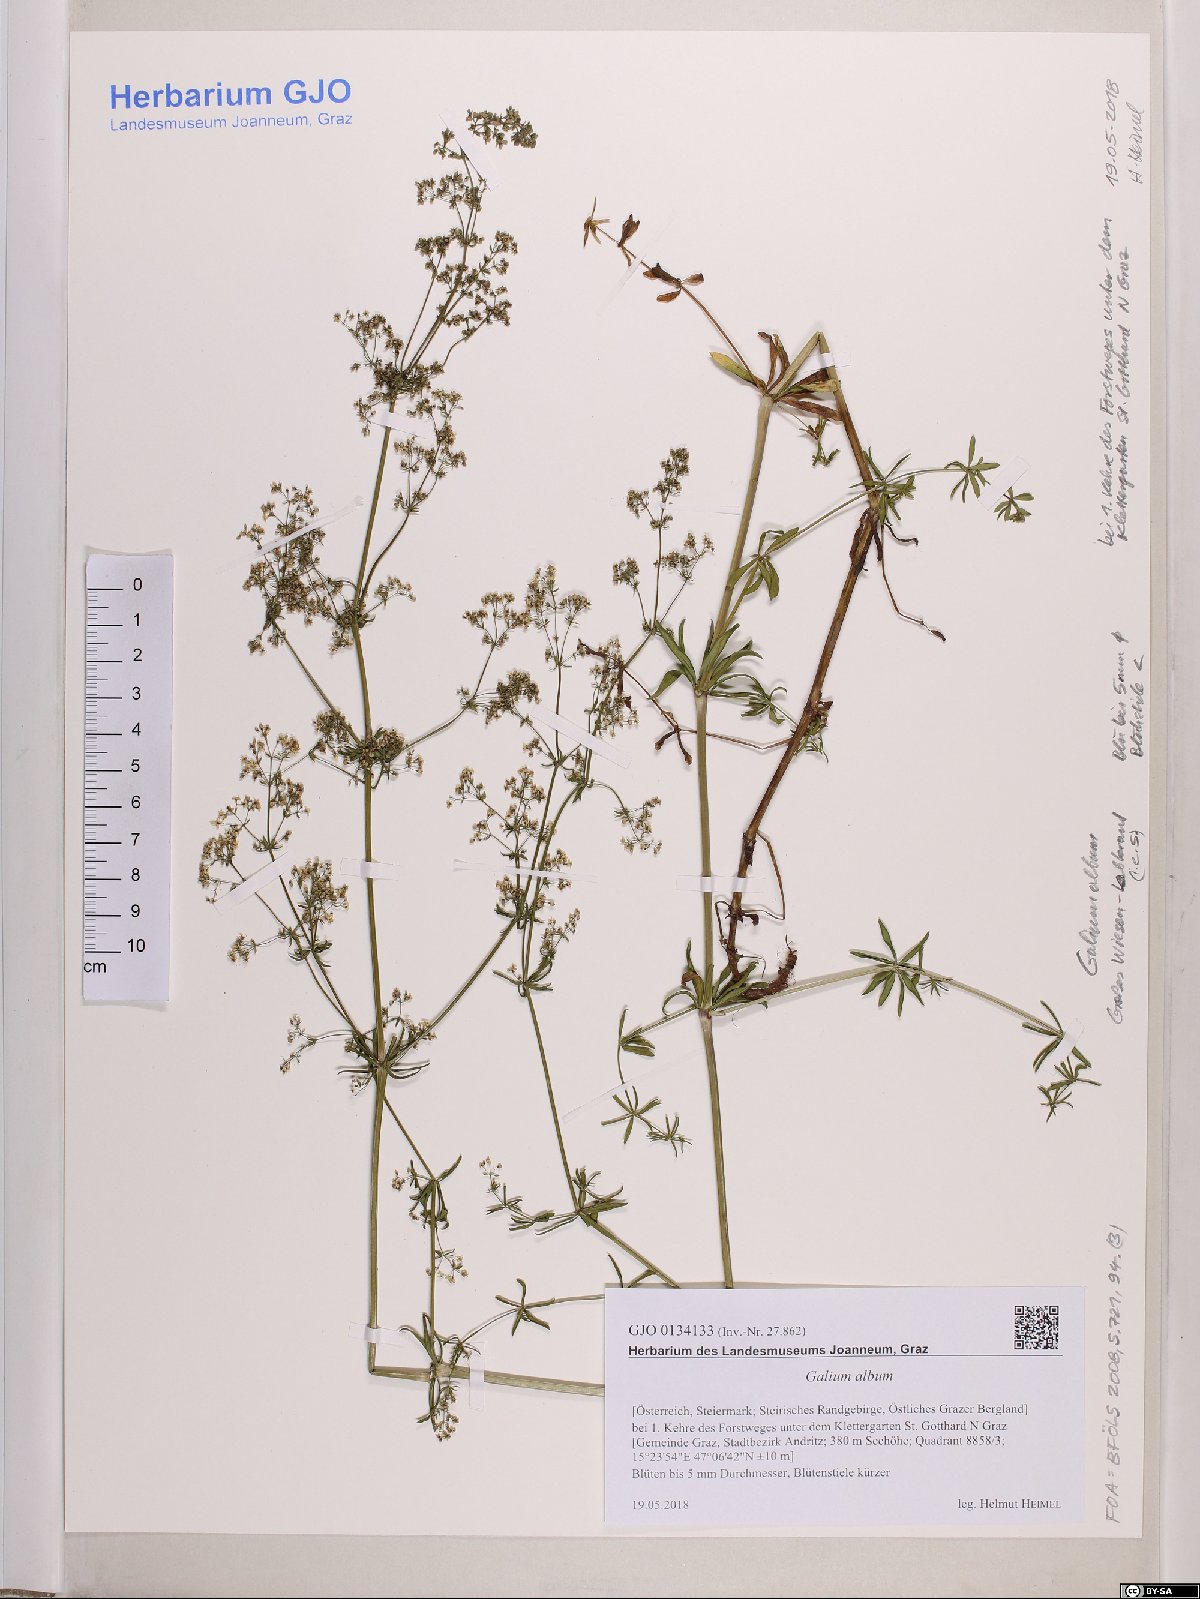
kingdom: Plantae
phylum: Tracheophyta
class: Magnoliopsida
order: Gentianales
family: Rubiaceae
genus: Galium
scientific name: Galium album
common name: White bedstraw
